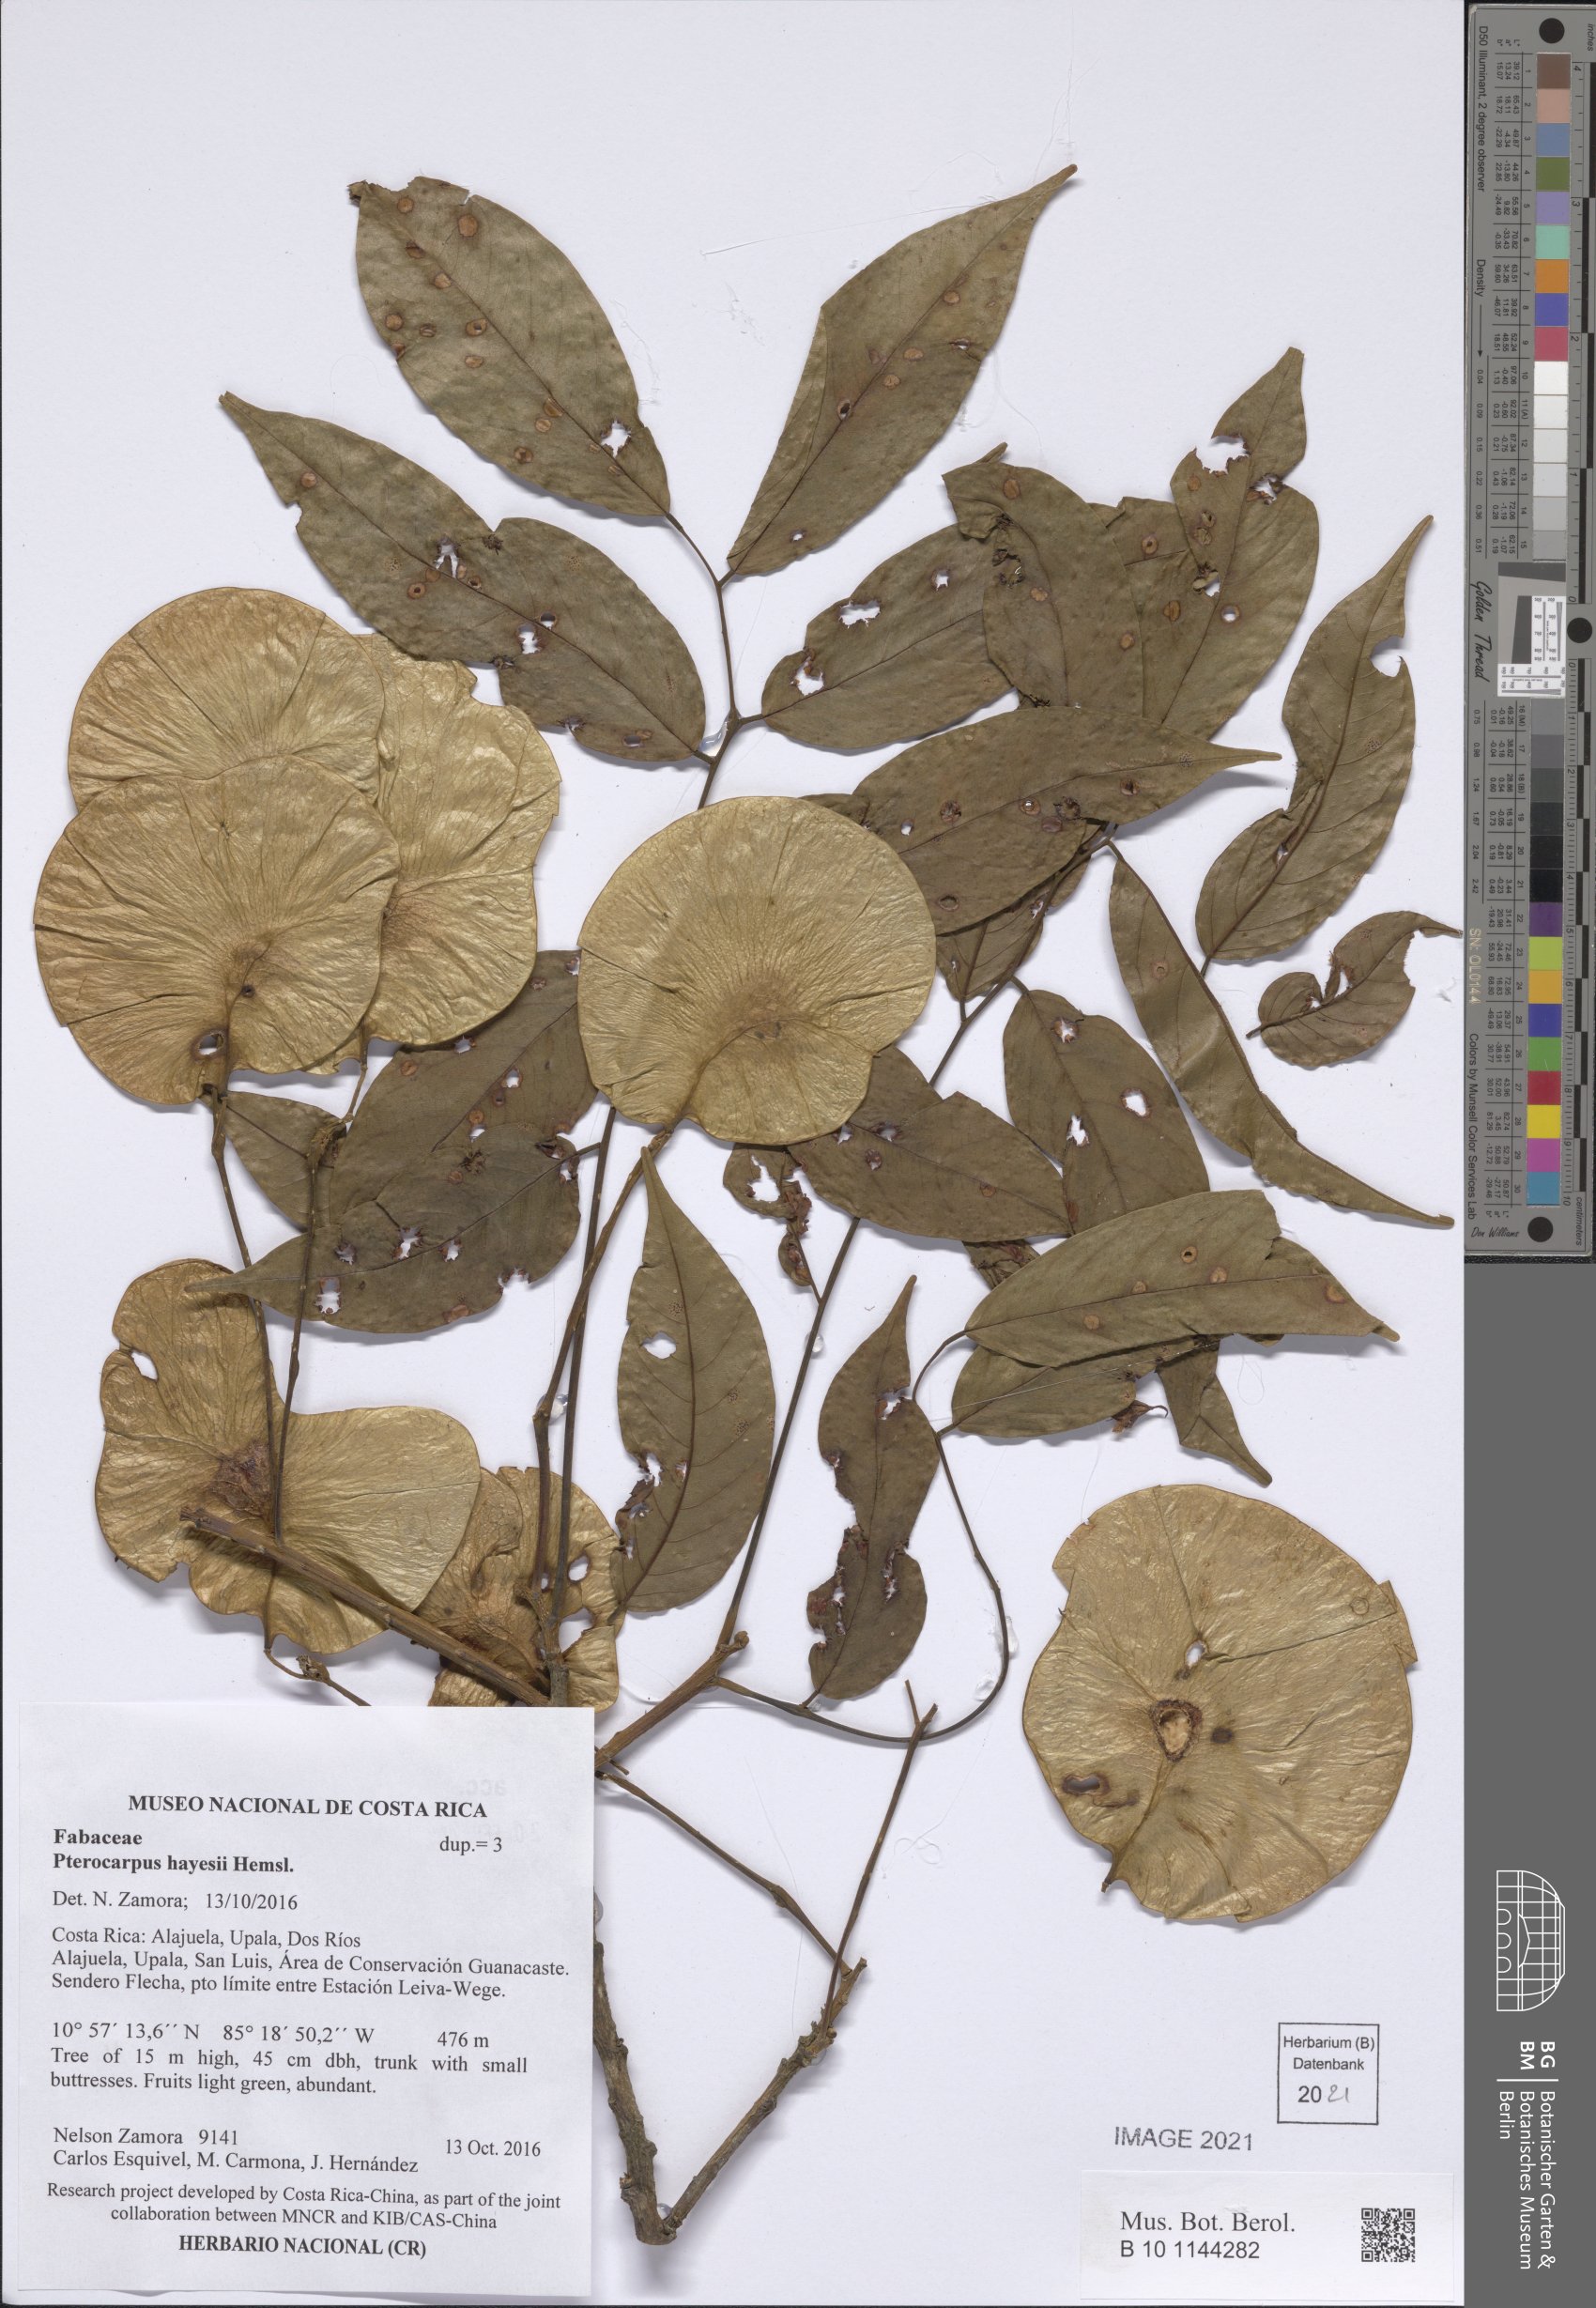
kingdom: Plantae
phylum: Tracheophyta
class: Magnoliopsida
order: Fabales
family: Fabaceae
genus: Pterocarpus
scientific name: Pterocarpus rohrii
